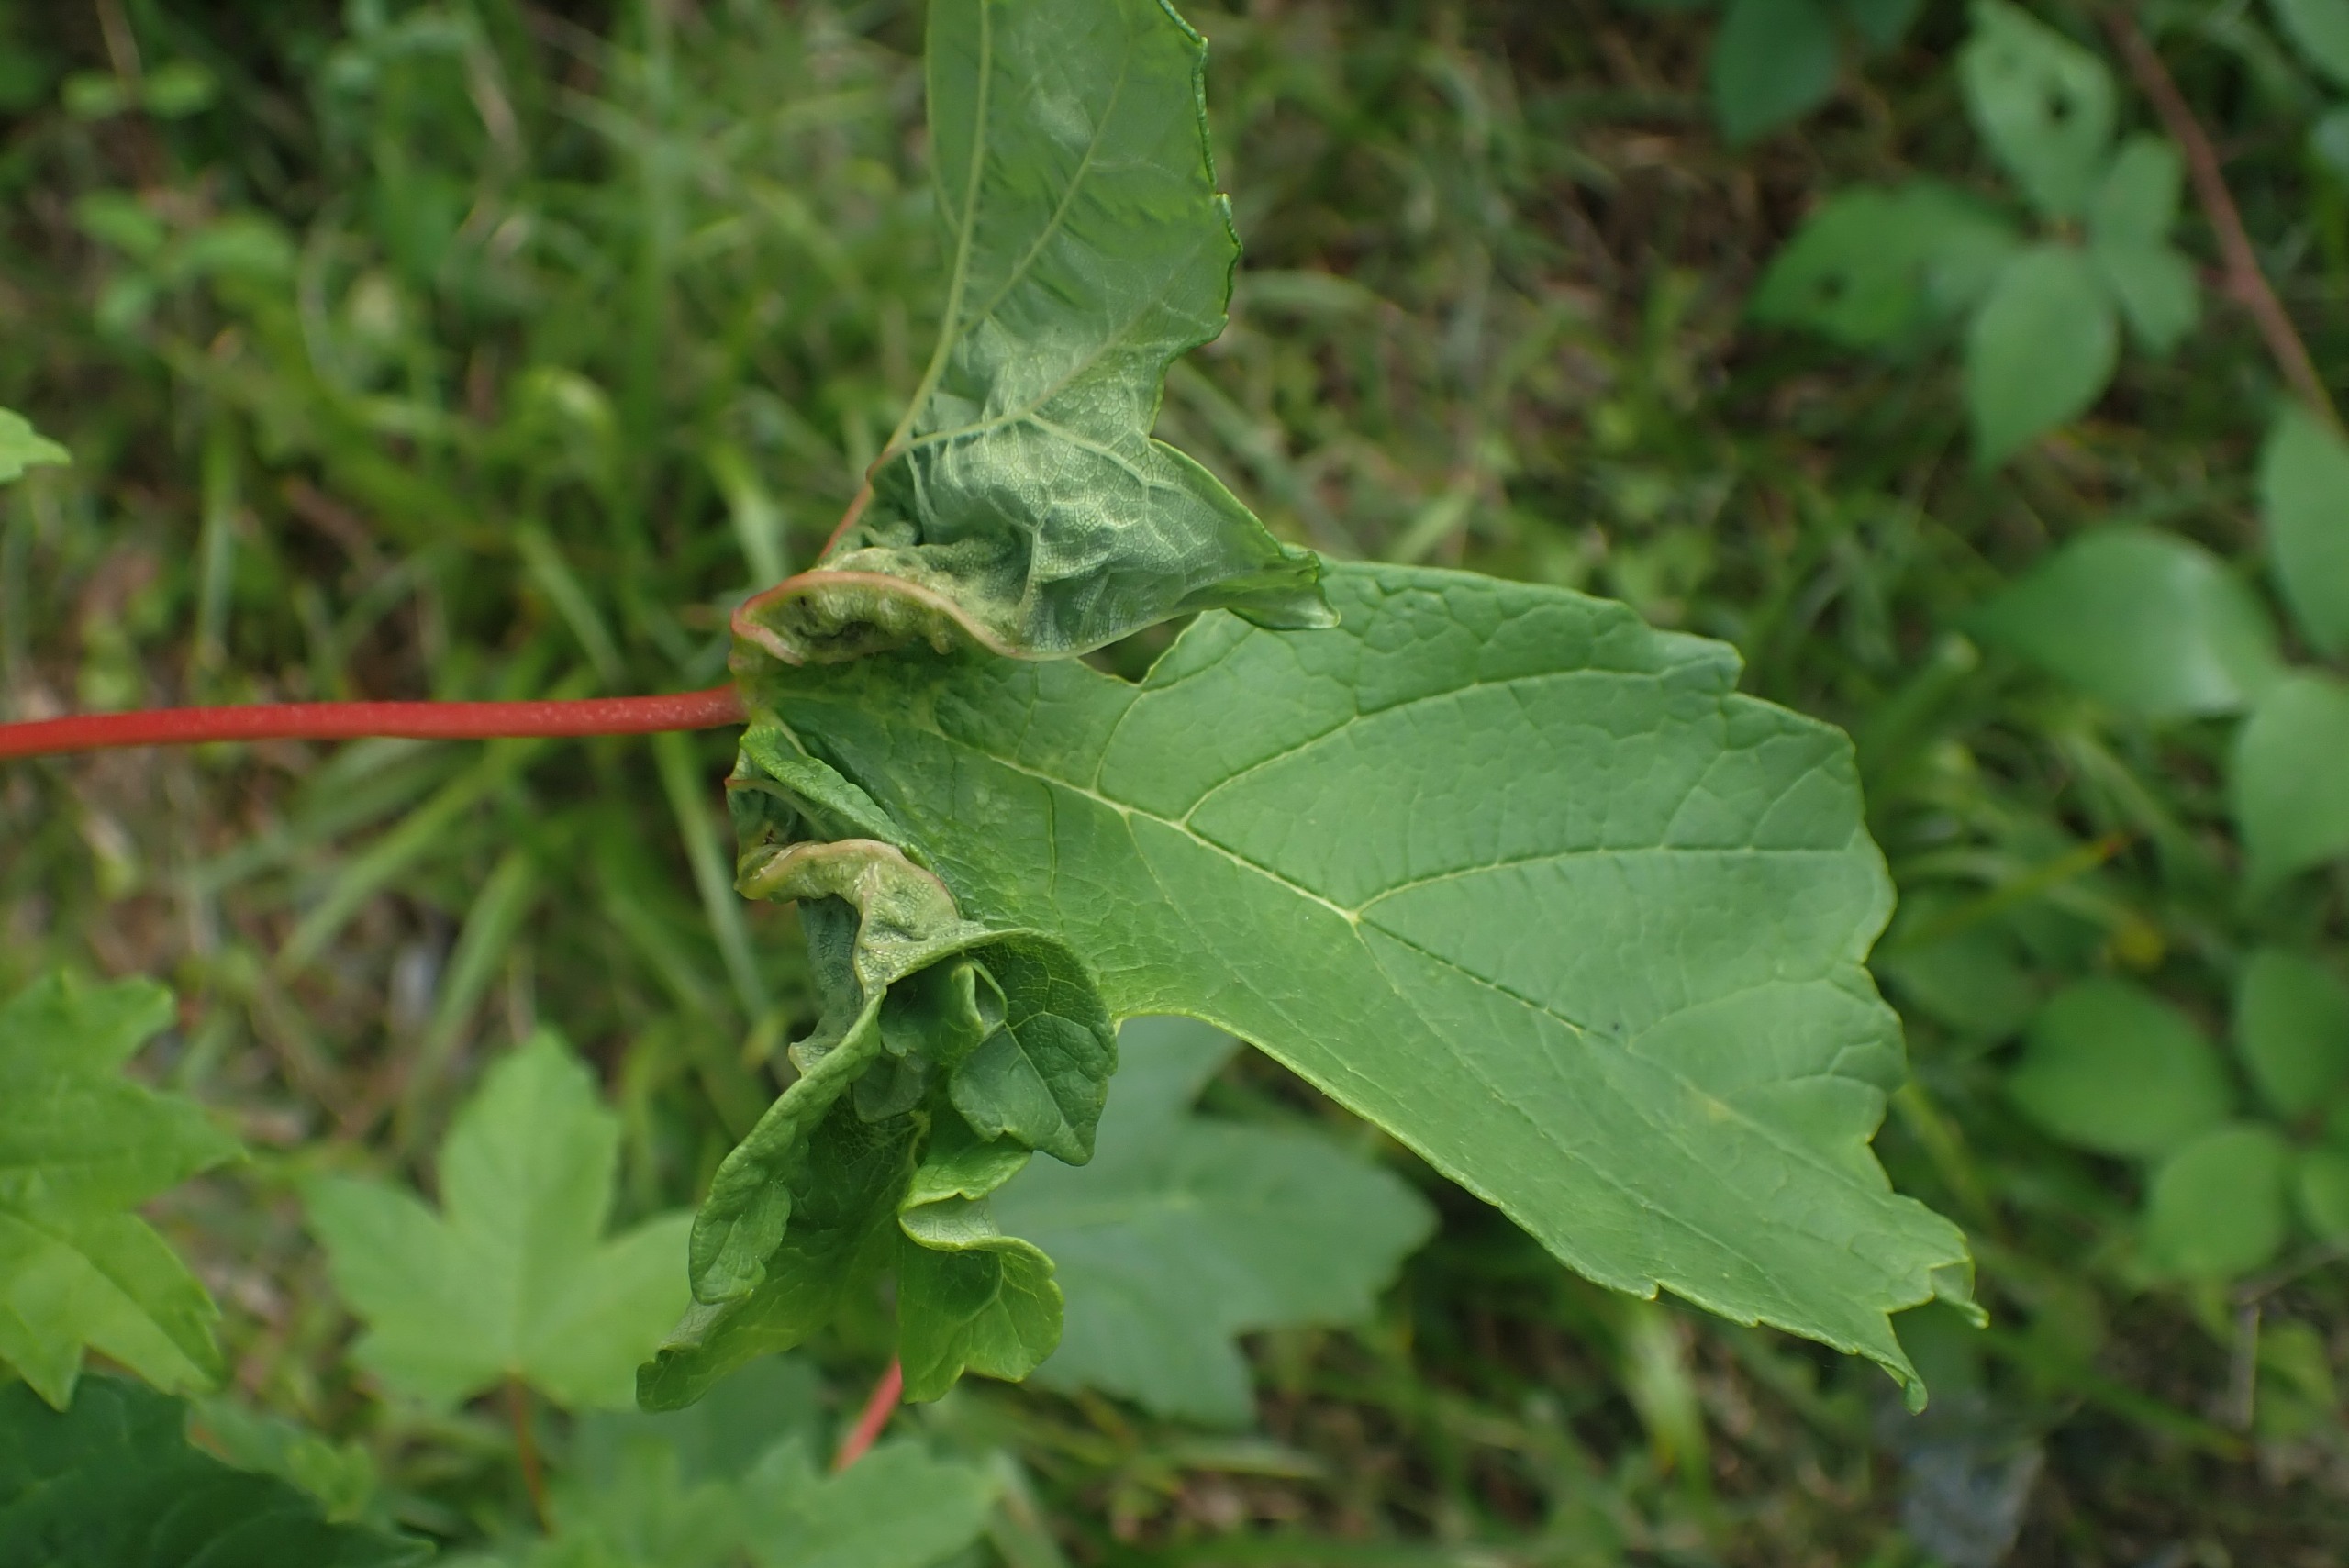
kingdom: Animalia
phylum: Arthropoda
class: Insecta
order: Diptera
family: Cecidomyiidae
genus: Dasineura
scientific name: Dasineura irregularis
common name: Ahornkrusegalmyg
